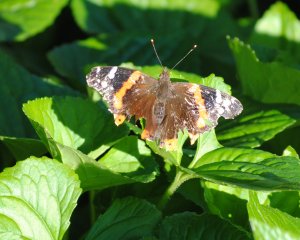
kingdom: Animalia
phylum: Arthropoda
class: Insecta
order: Lepidoptera
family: Nymphalidae
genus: Vanessa
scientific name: Vanessa atalanta
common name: Red Admiral
